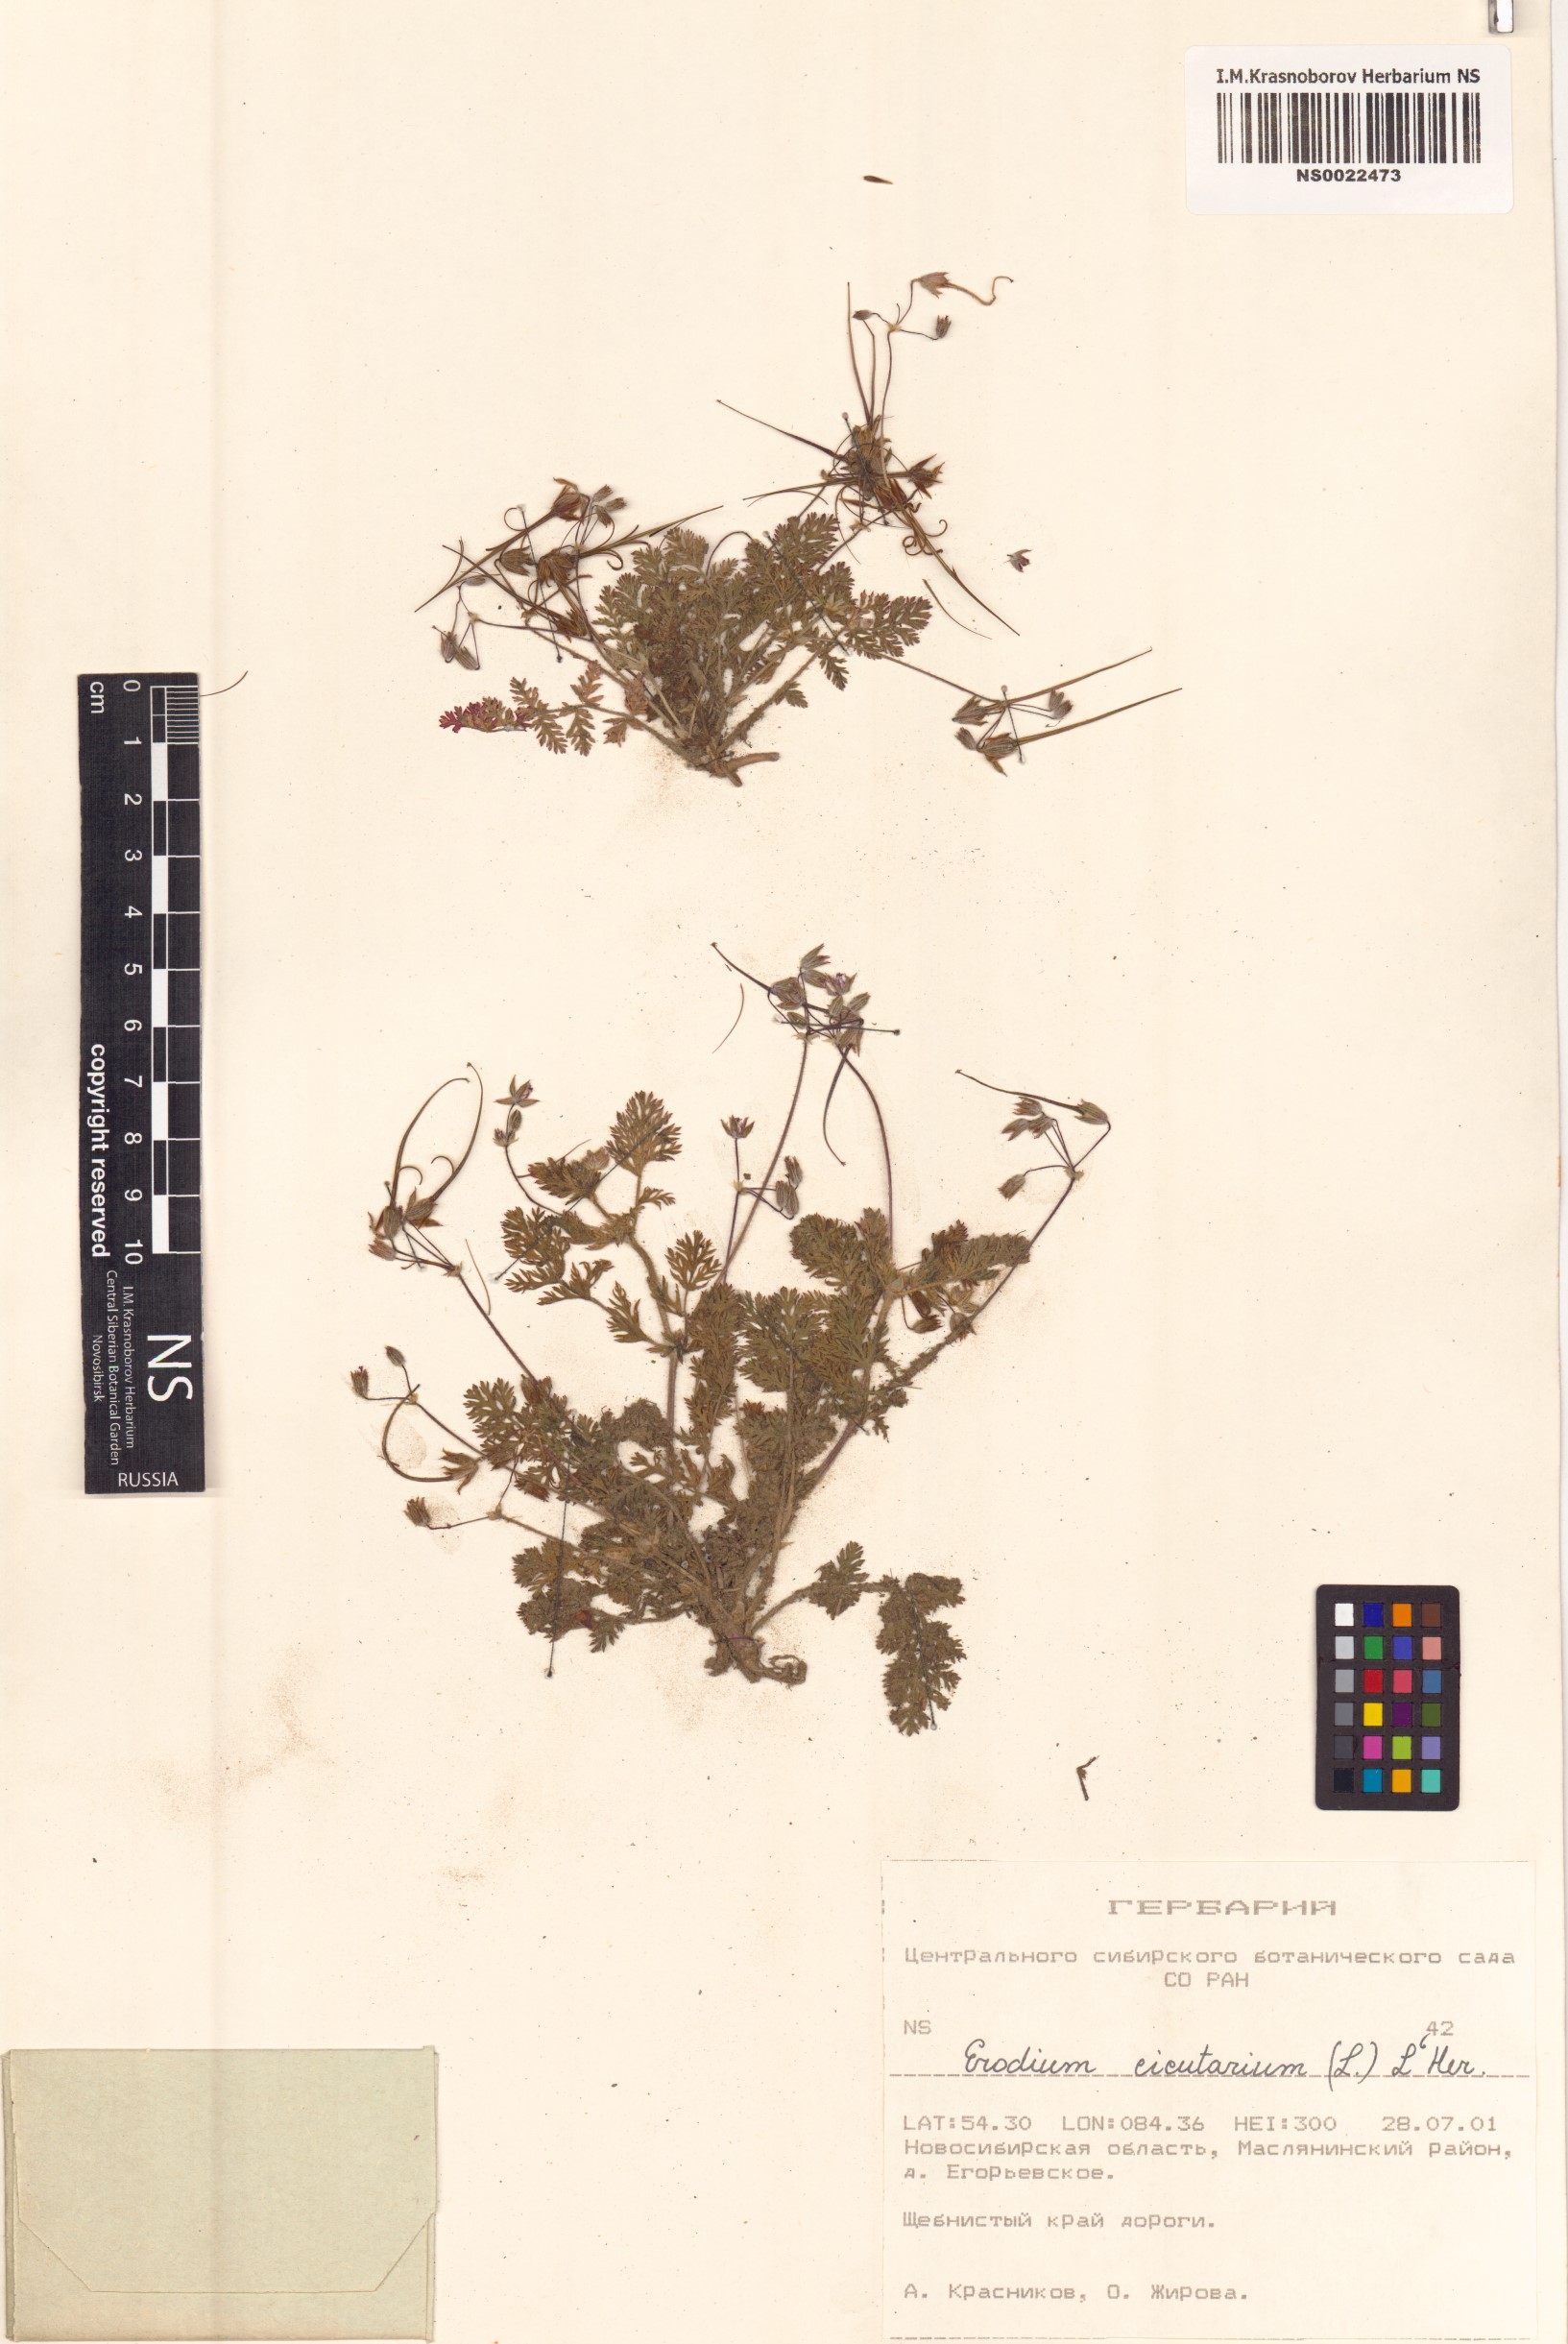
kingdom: Plantae
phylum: Tracheophyta
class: Magnoliopsida
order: Geraniales
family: Geraniaceae
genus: Erodium
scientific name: Erodium cicutarium
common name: Common stork's-bill
